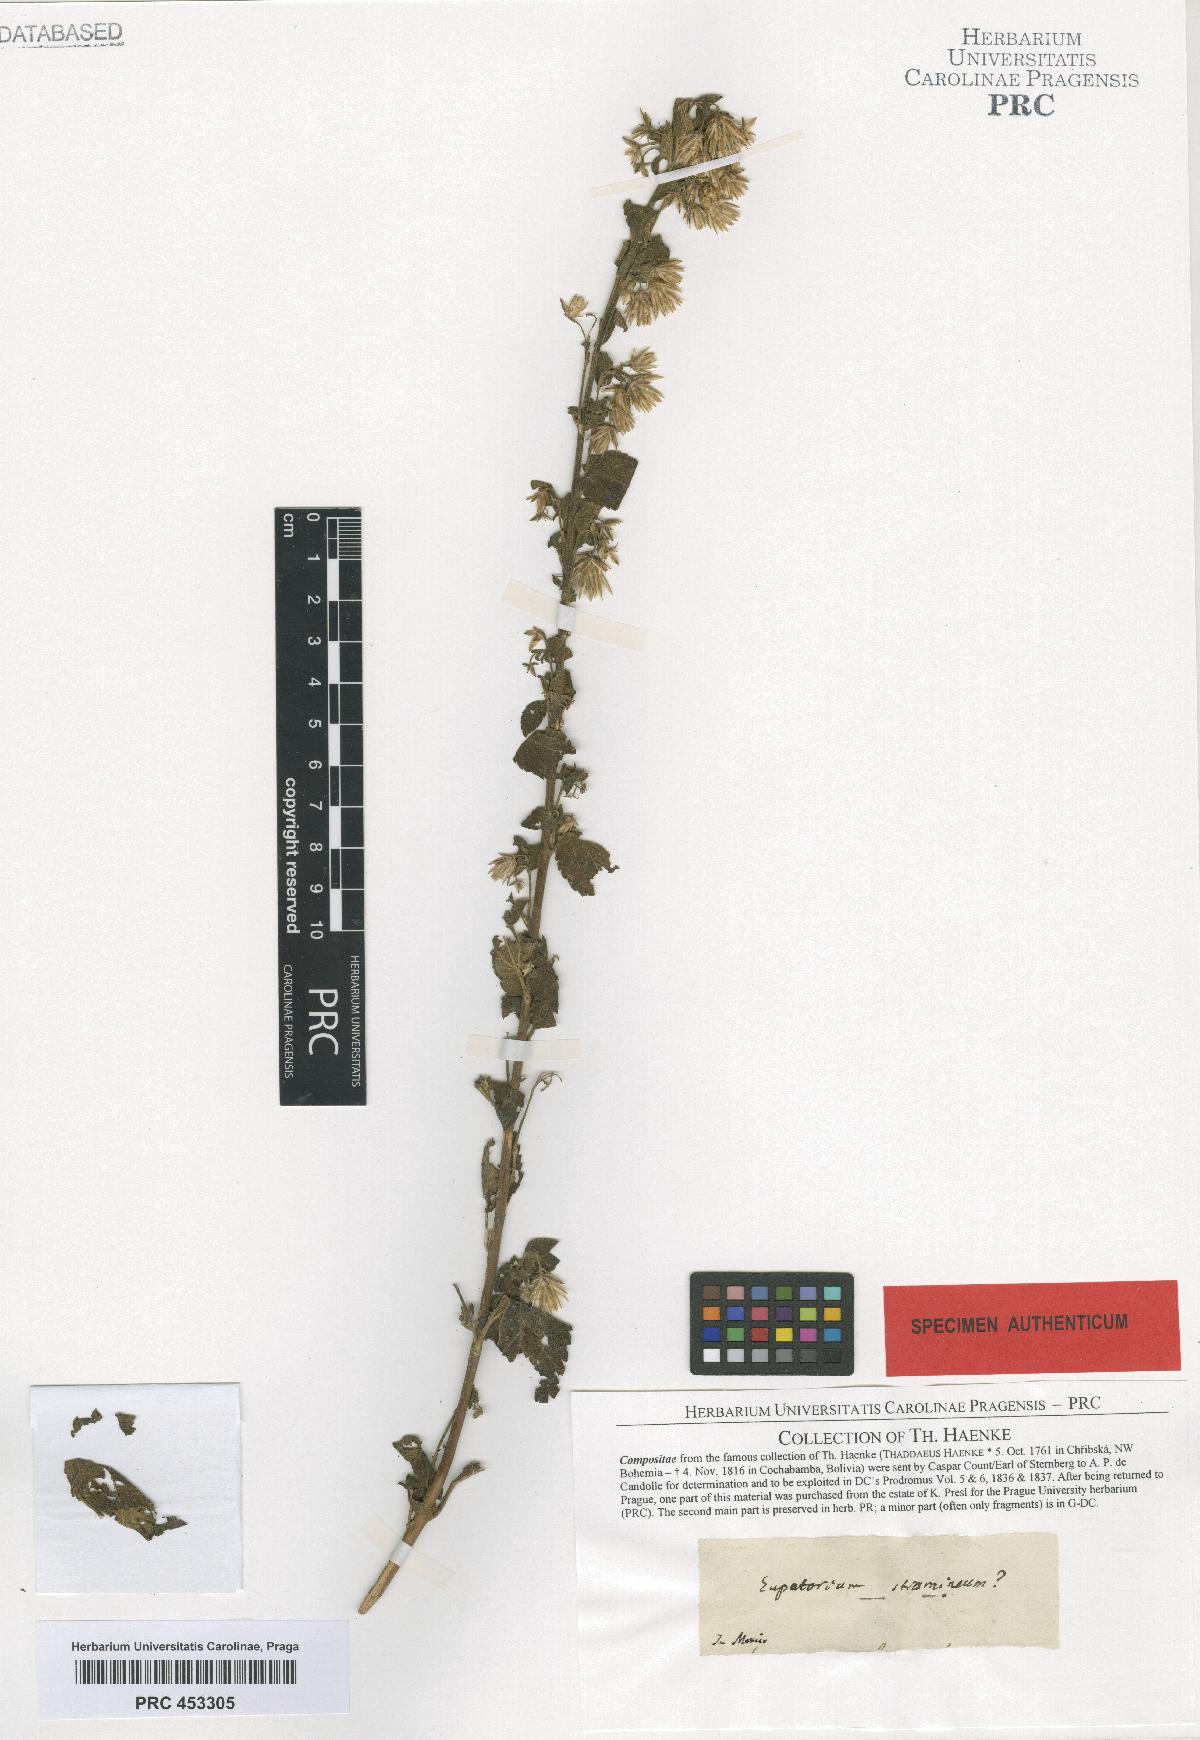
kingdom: Plantae
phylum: Tracheophyta
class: Magnoliopsida
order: Asterales
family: Asteraceae
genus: Helogyne
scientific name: Helogyne straminea
